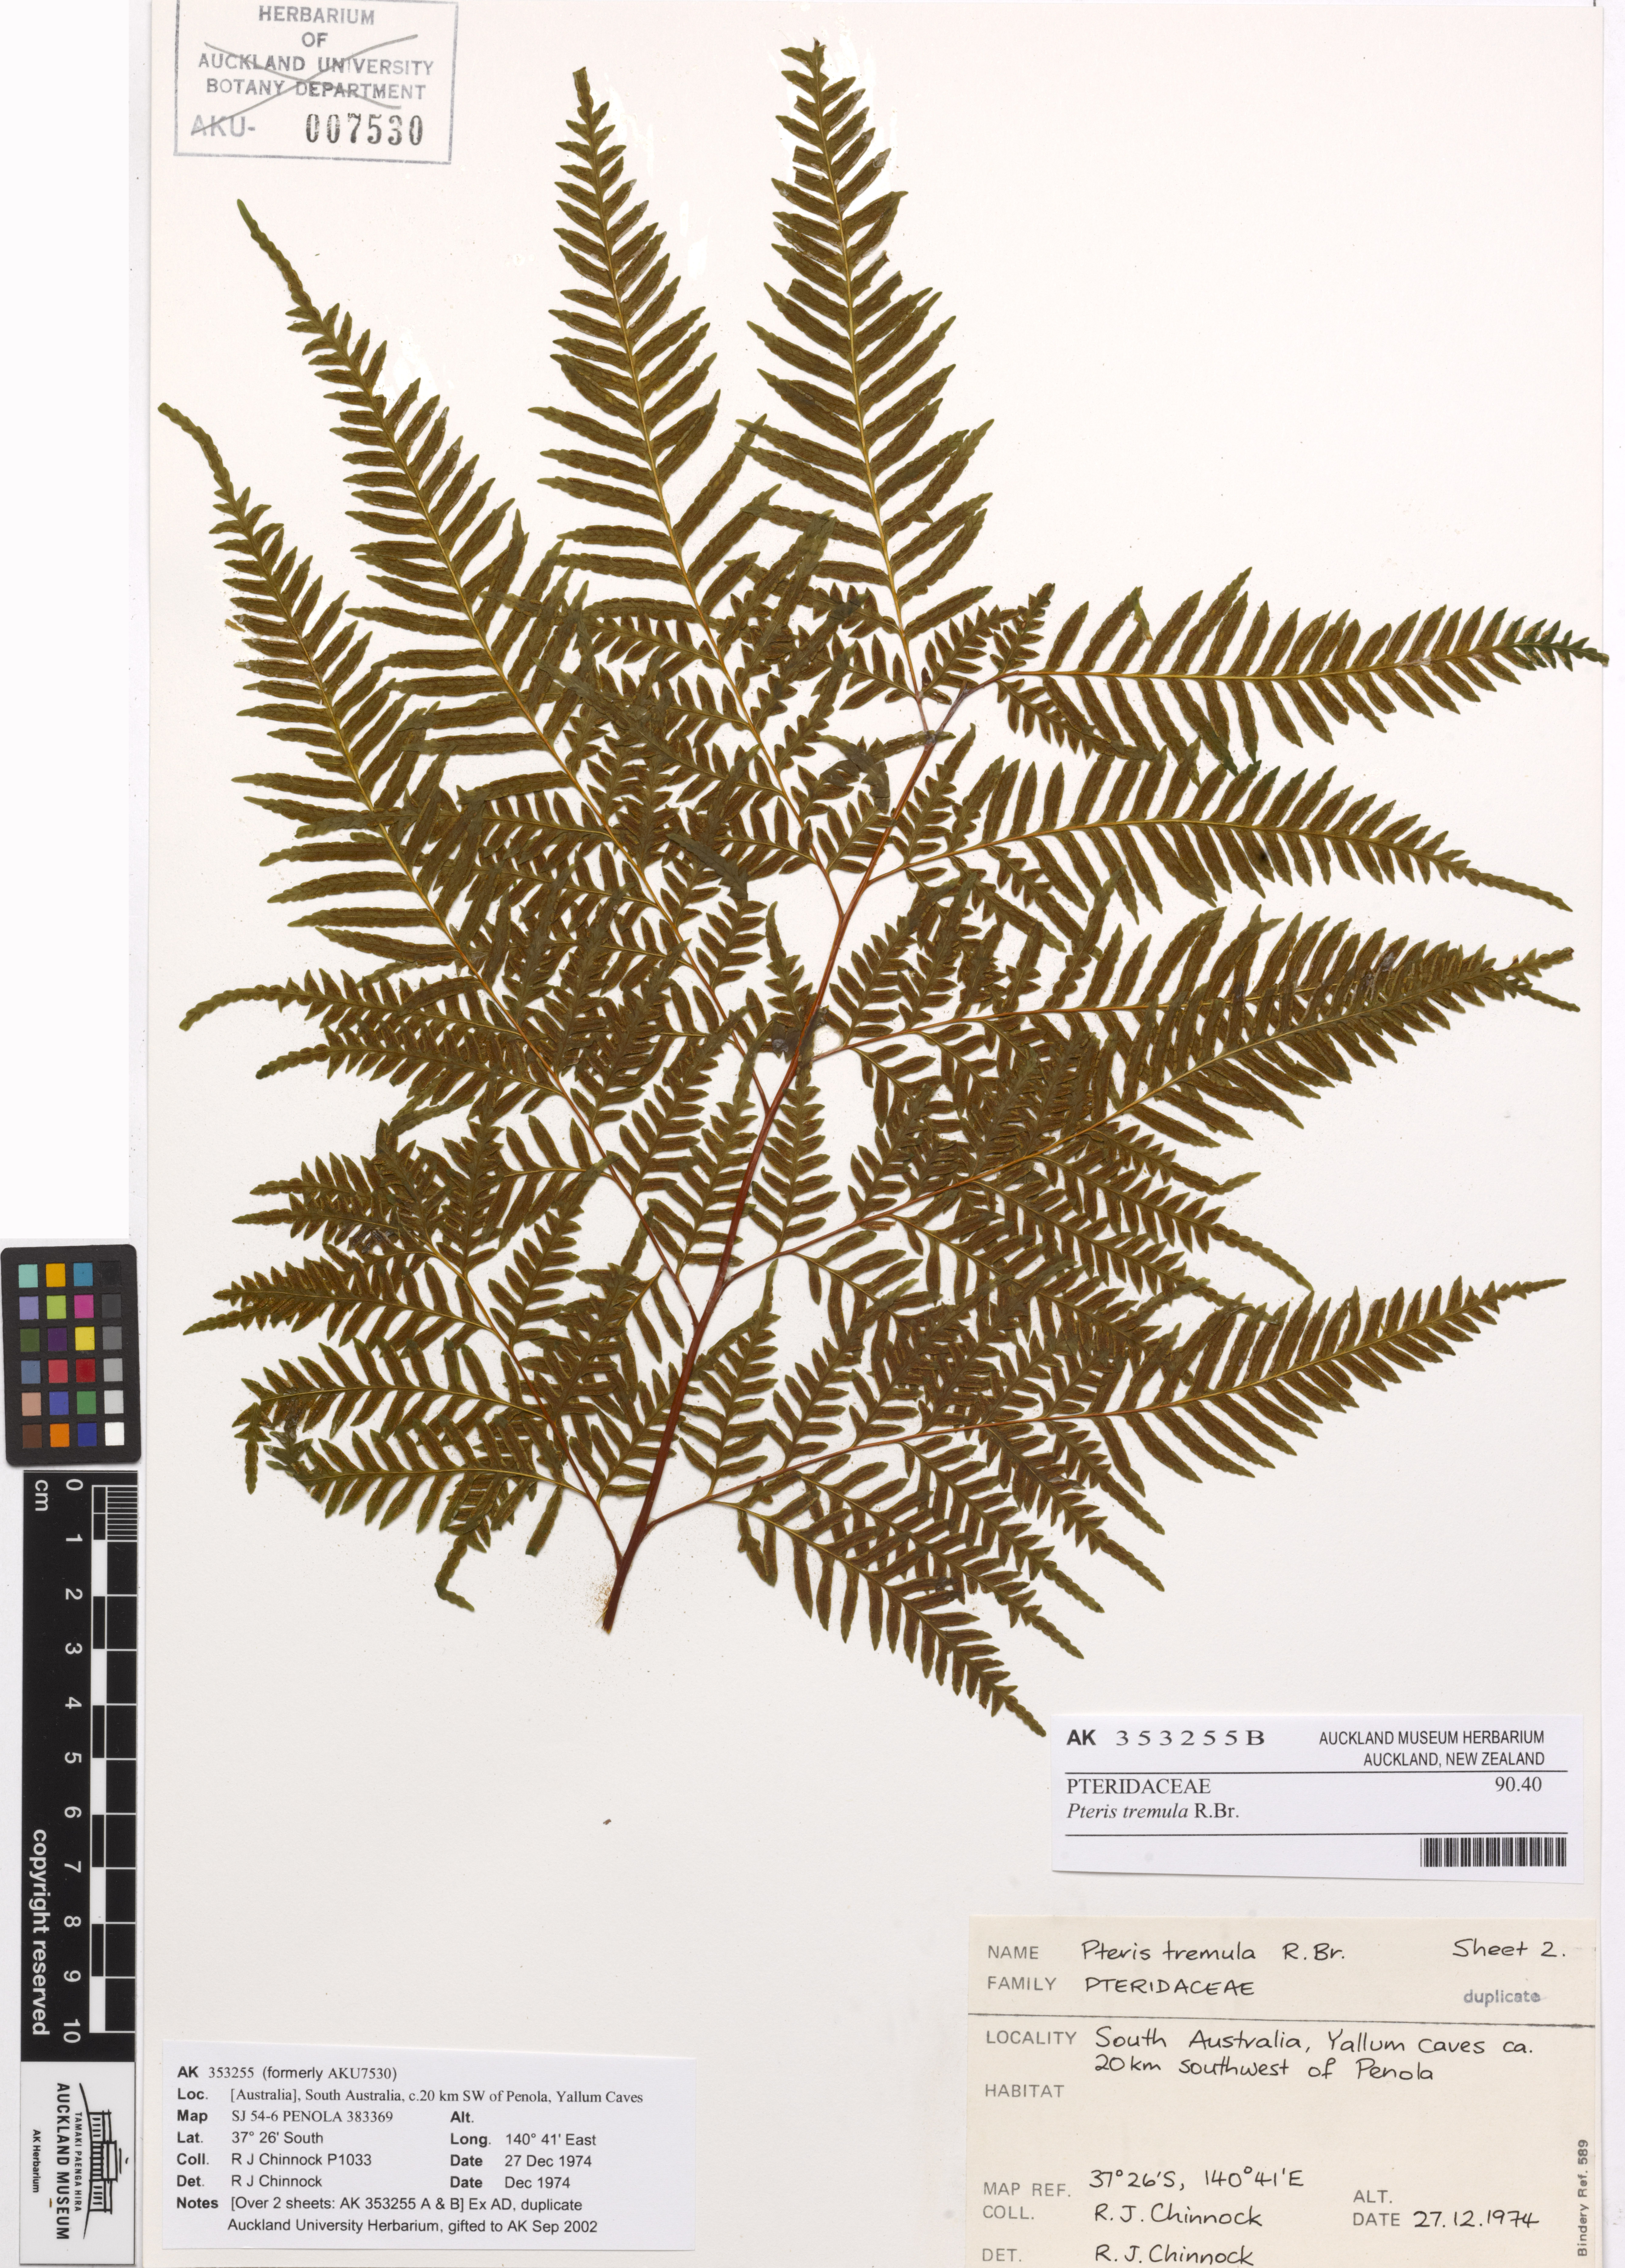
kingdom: Plantae
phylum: Tracheophyta
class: Polypodiopsida
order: Polypodiales
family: Pteridaceae
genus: Pteris
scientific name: Pteris tremula
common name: Australian brake
